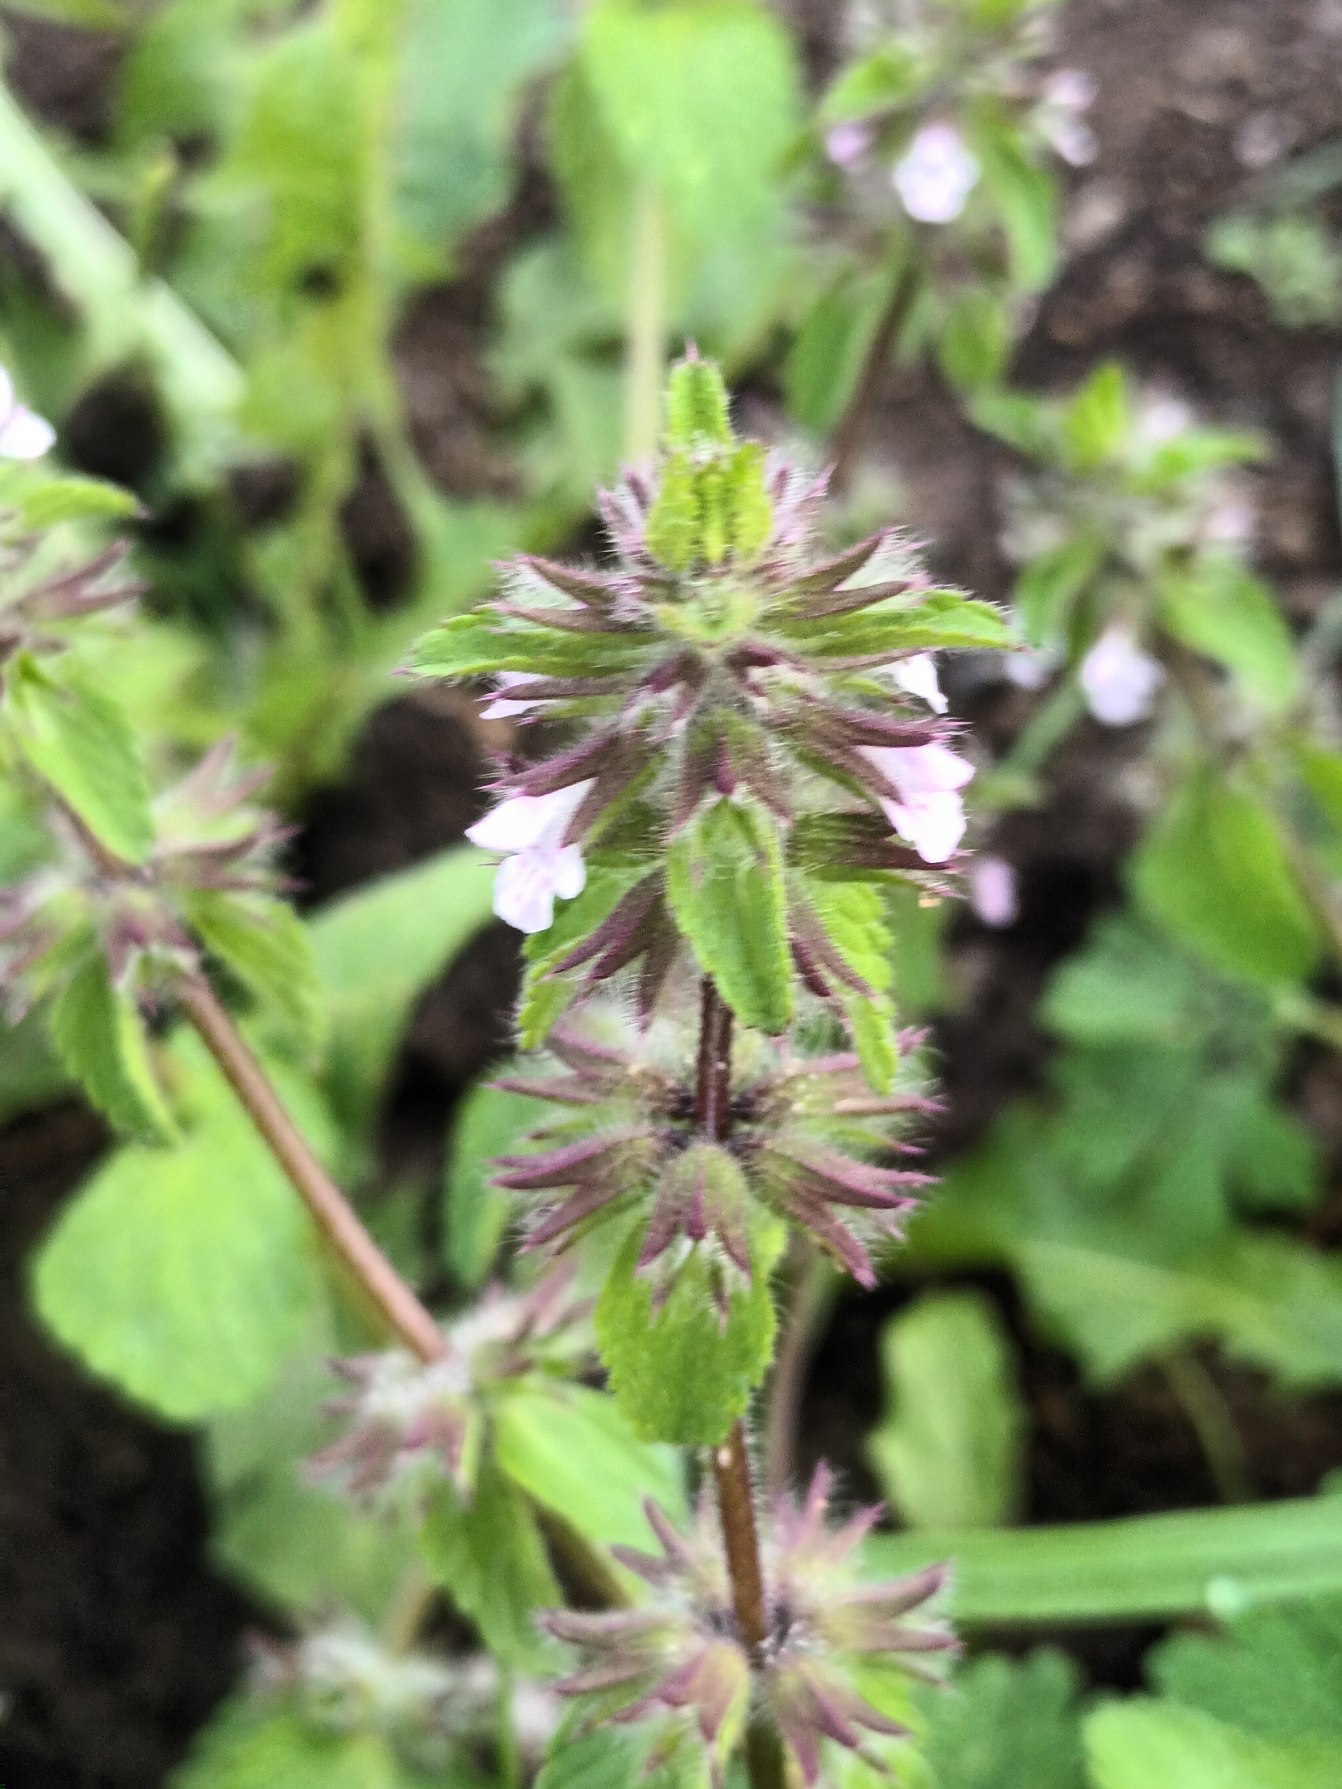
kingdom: Plantae
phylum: Tracheophyta
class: Magnoliopsida
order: Lamiales
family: Lamiaceae
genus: Stachys
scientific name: Stachys arvensis
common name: Ager-galtetand
